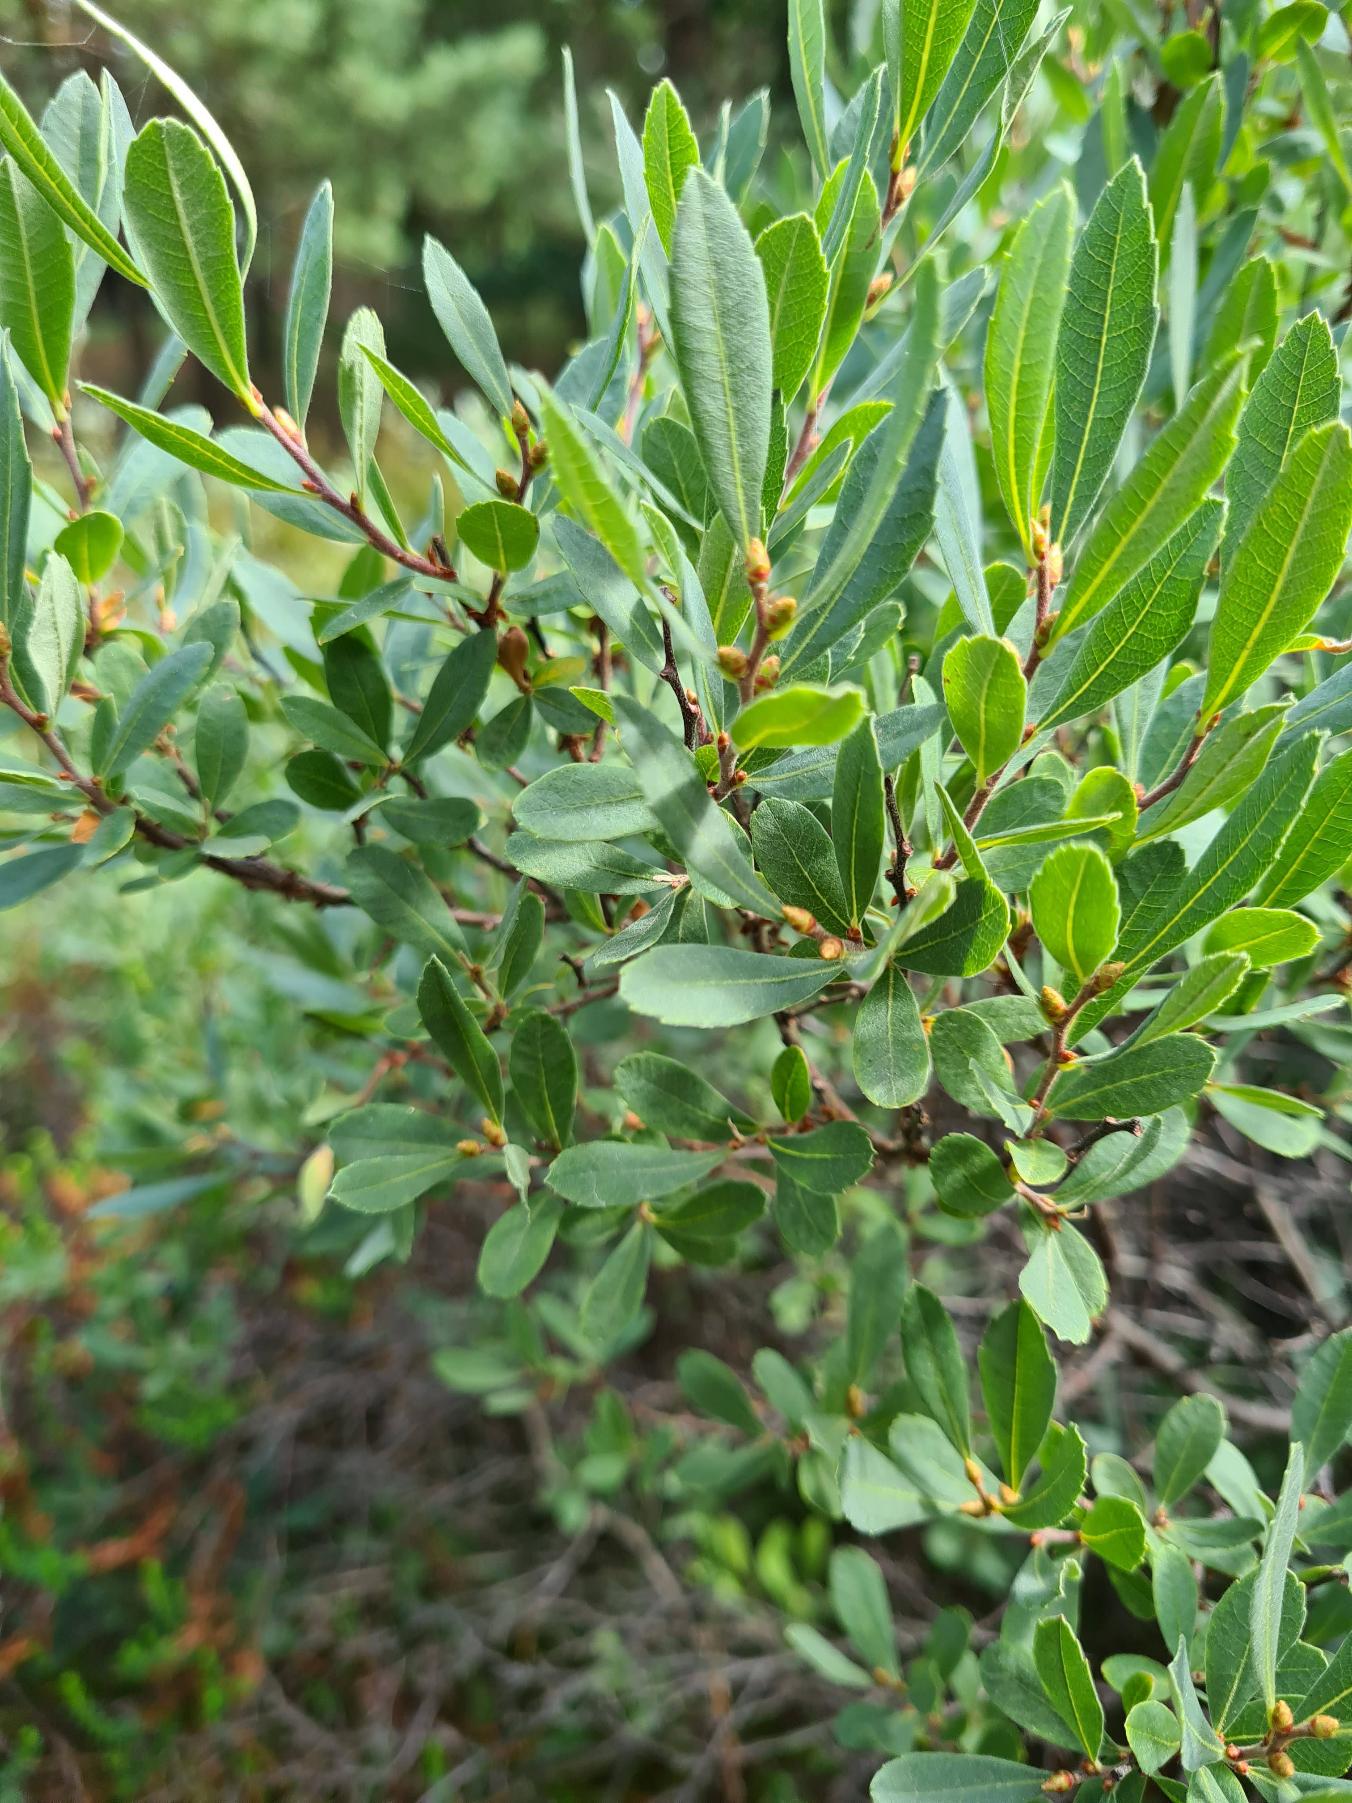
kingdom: Plantae
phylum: Tracheophyta
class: Magnoliopsida
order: Fagales
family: Myricaceae
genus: Myrica
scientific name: Myrica gale
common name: Pors
